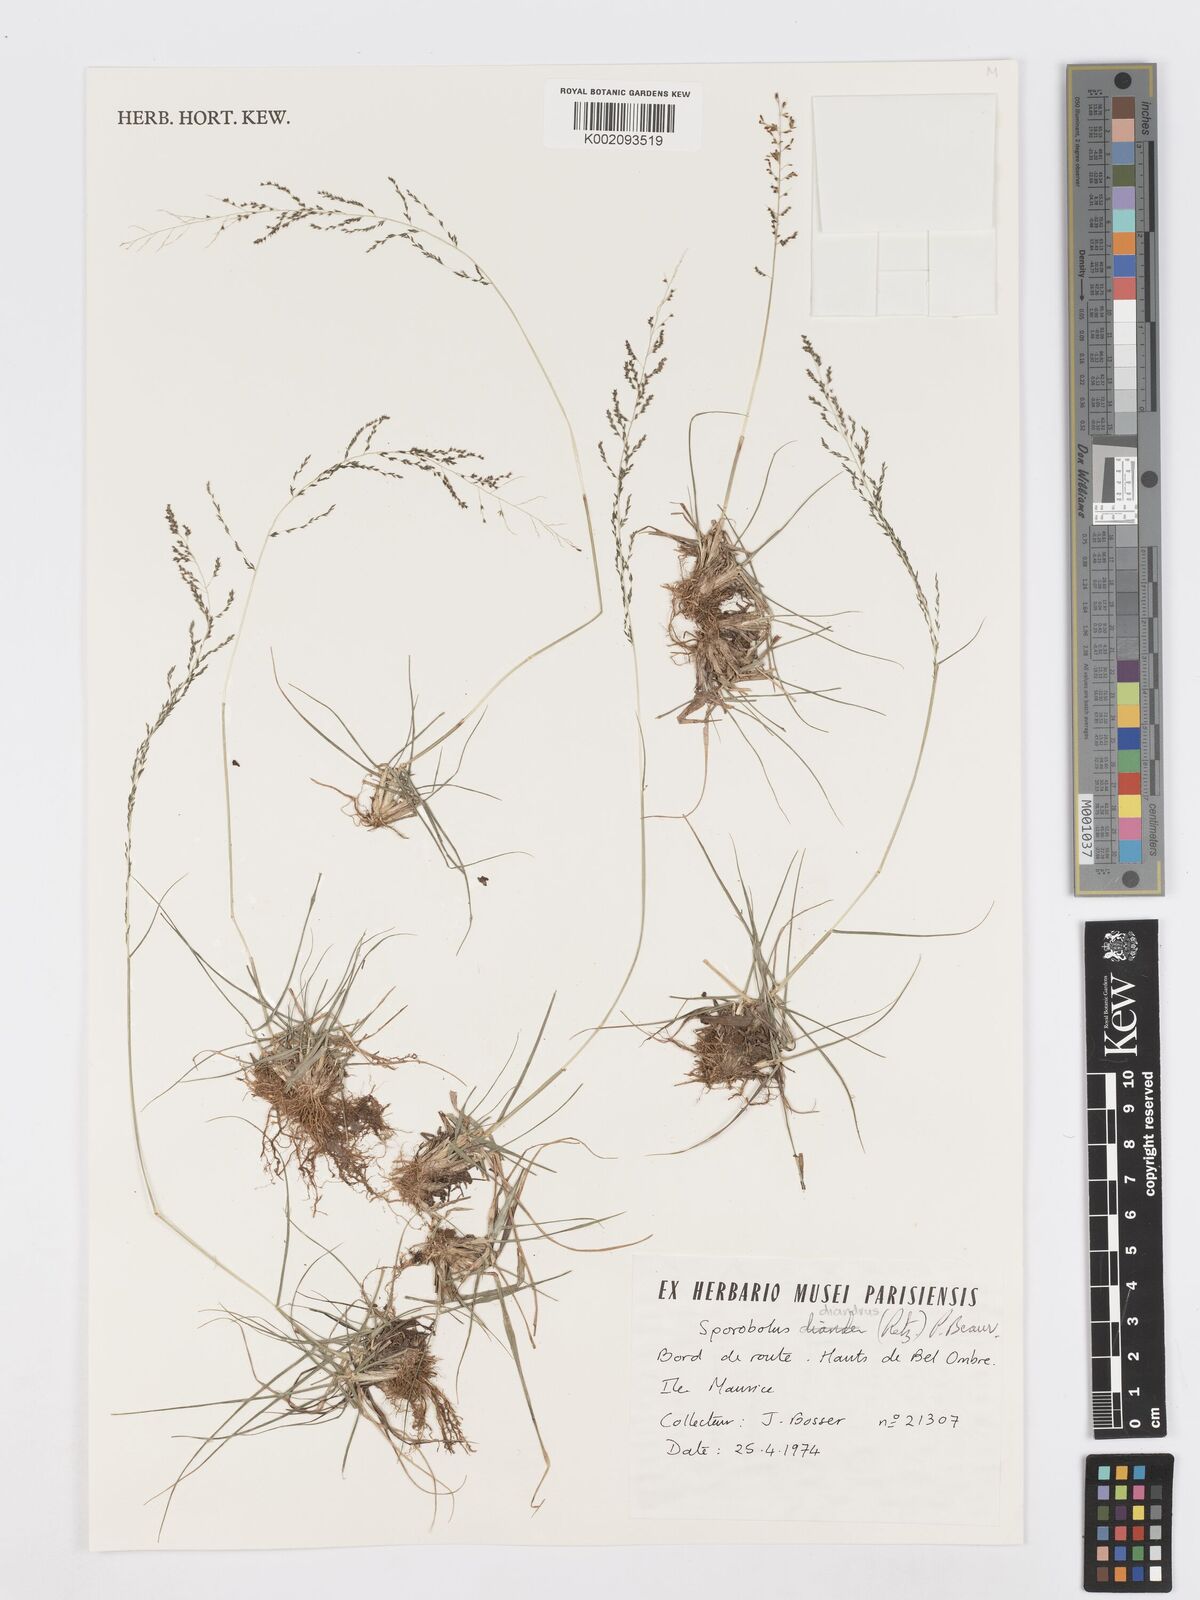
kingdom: Plantae
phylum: Tracheophyta
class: Liliopsida
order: Poales
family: Poaceae
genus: Sporobolus
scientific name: Sporobolus diandrus
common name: Tussock dropseed
